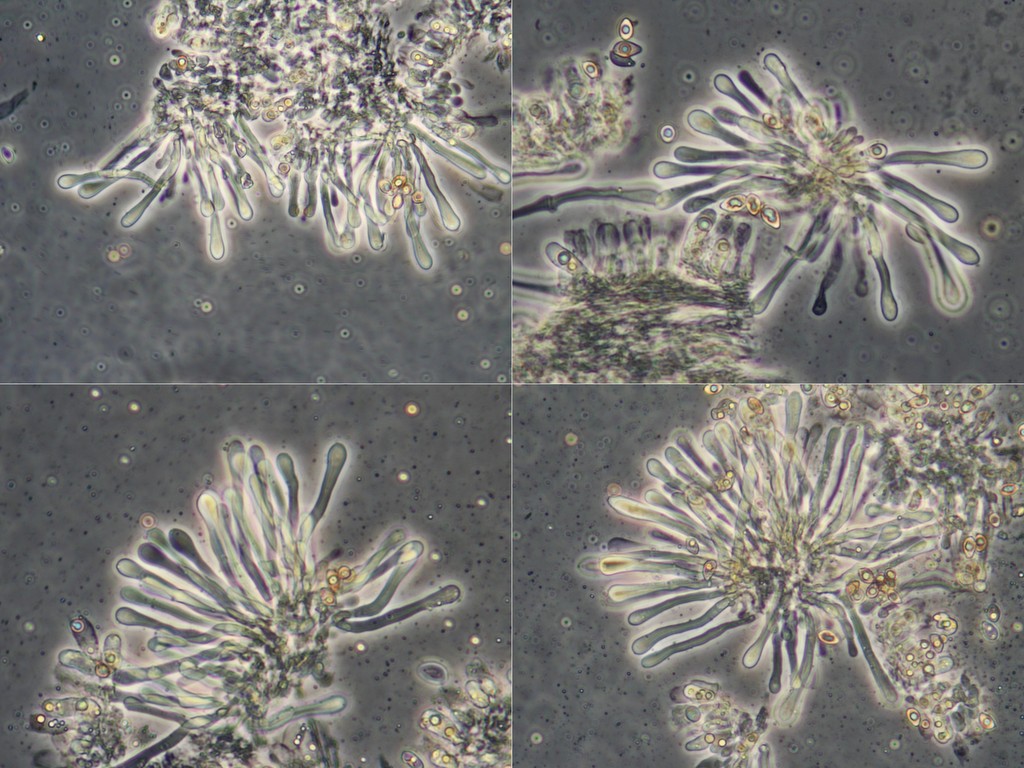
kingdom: Fungi
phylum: Basidiomycota
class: Agaricomycetes
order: Agaricales
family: Hymenogastraceae
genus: Hebeloma
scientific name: Hebeloma leucosarx
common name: højstokket tåreblad
